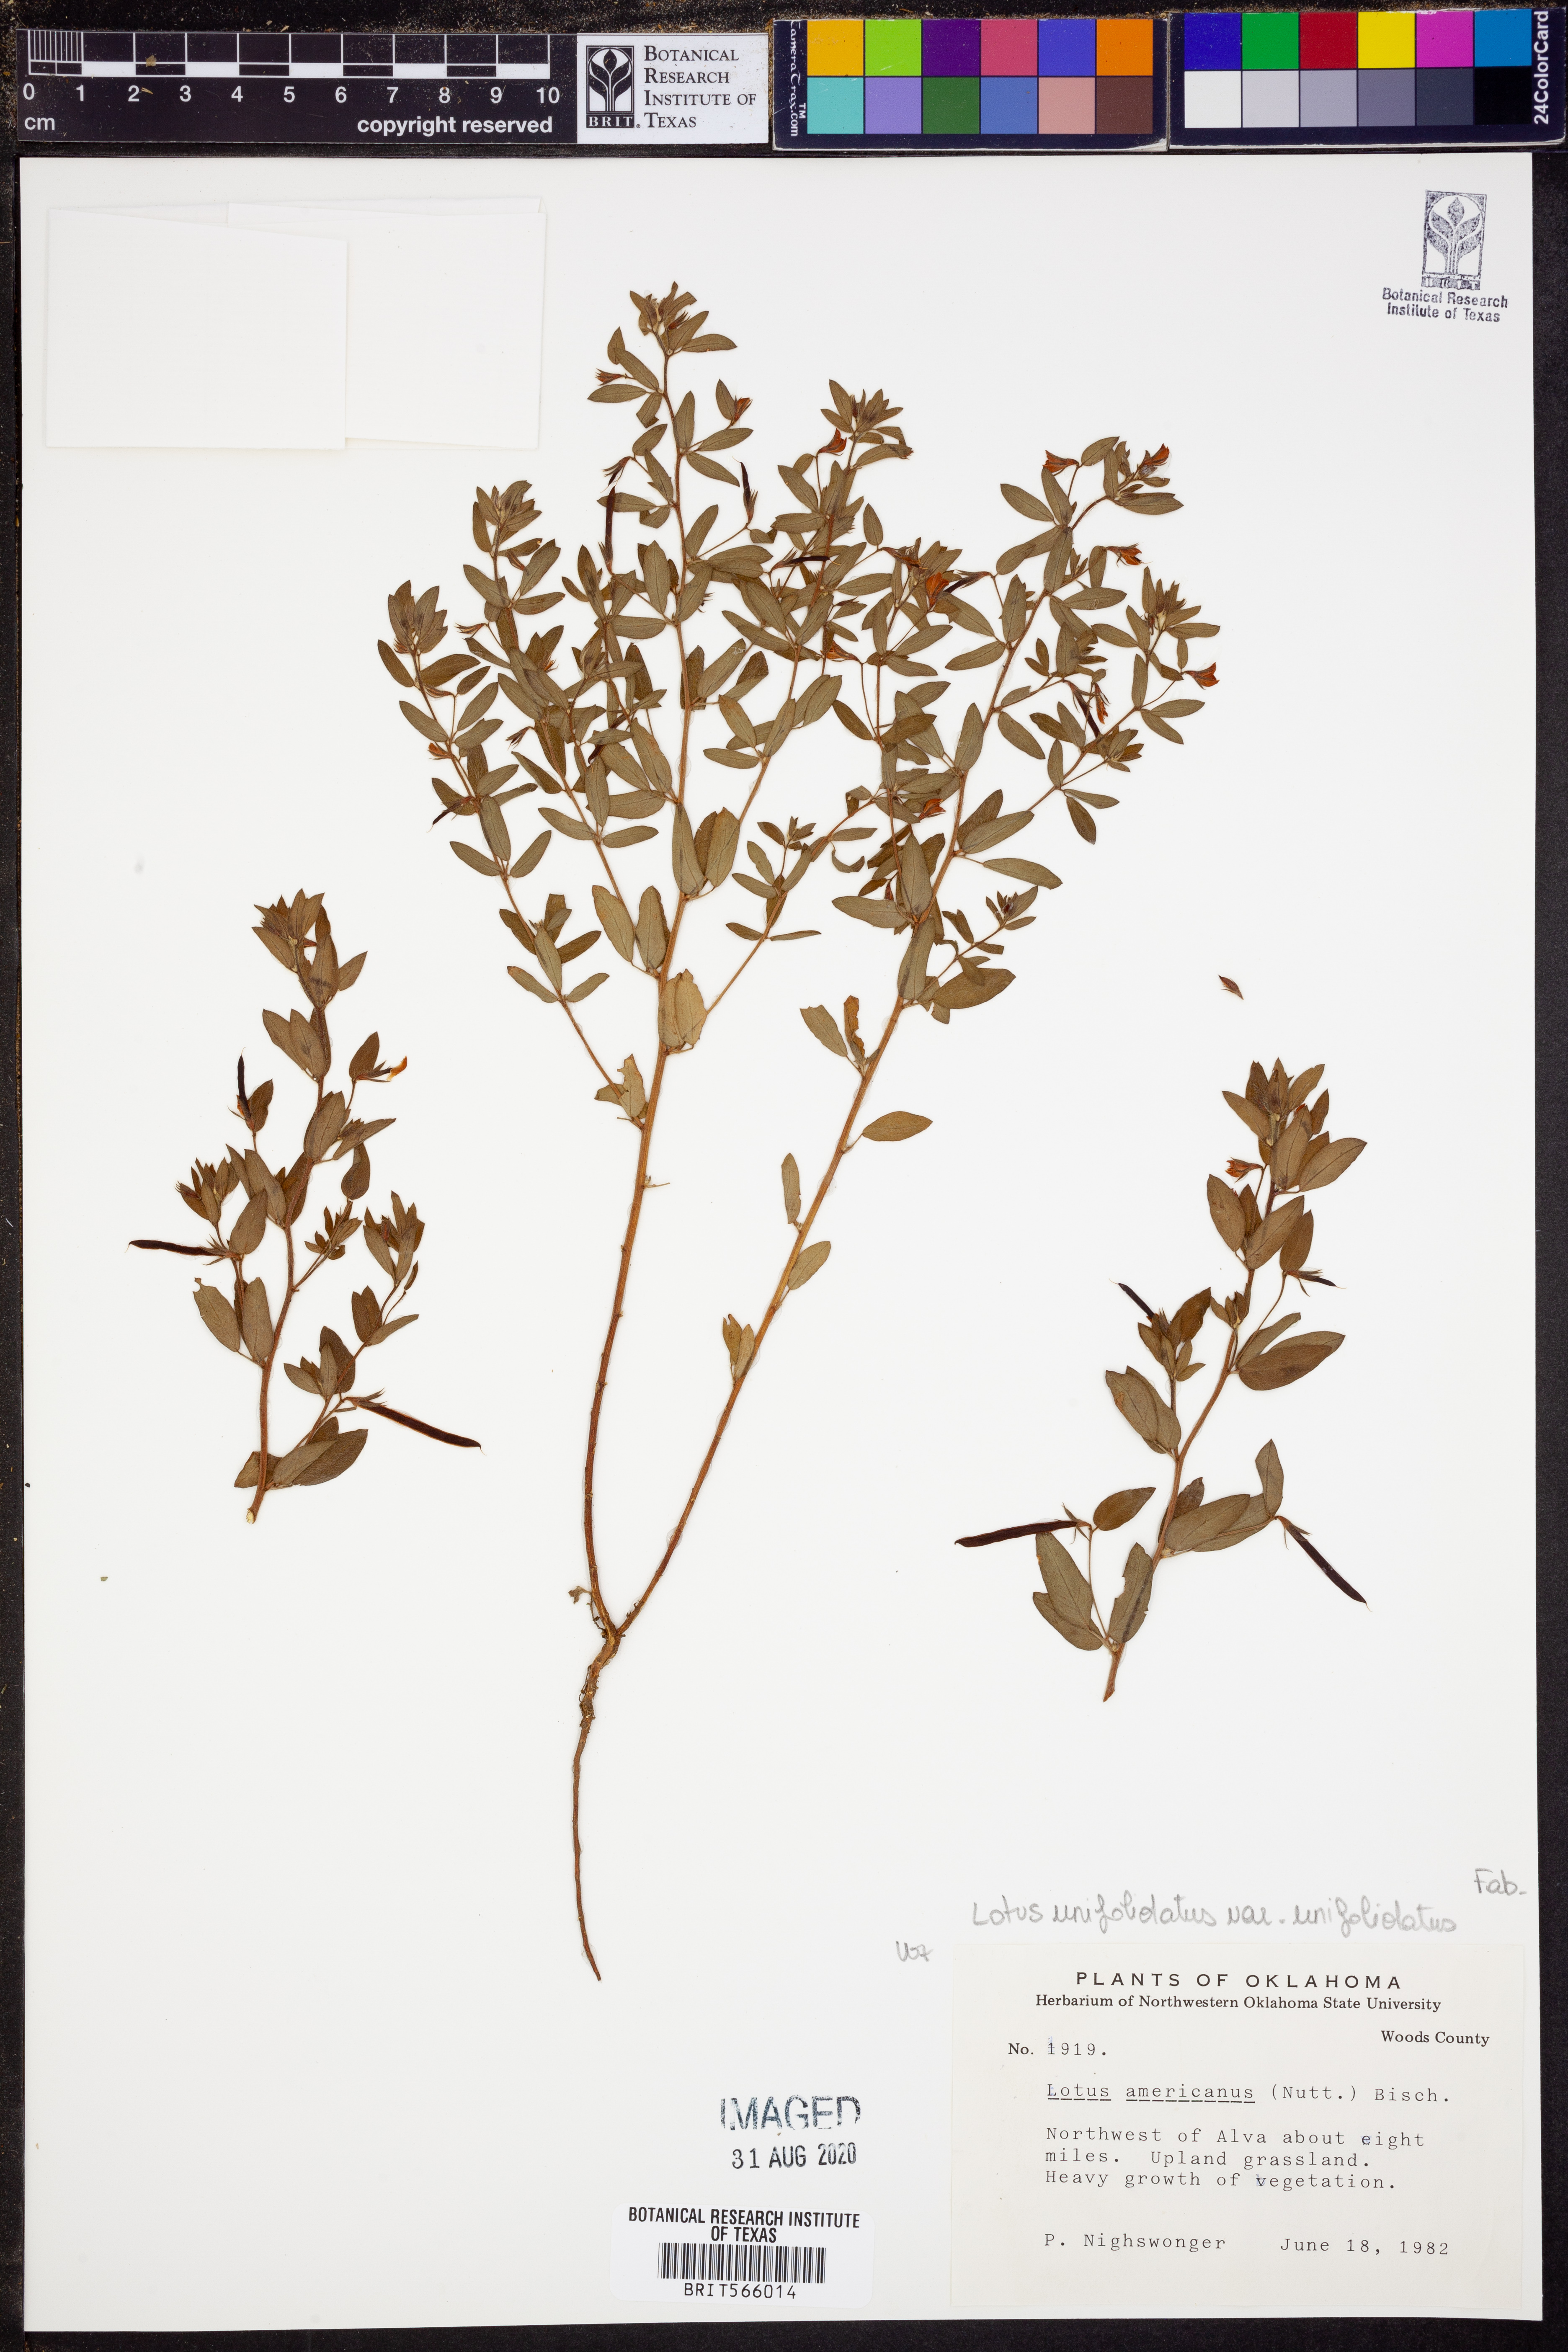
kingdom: Plantae
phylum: Tracheophyta
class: Magnoliopsida
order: Fabales
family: Fabaceae
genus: Acmispon
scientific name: Acmispon americanus
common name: American bird's-foot trefoil
